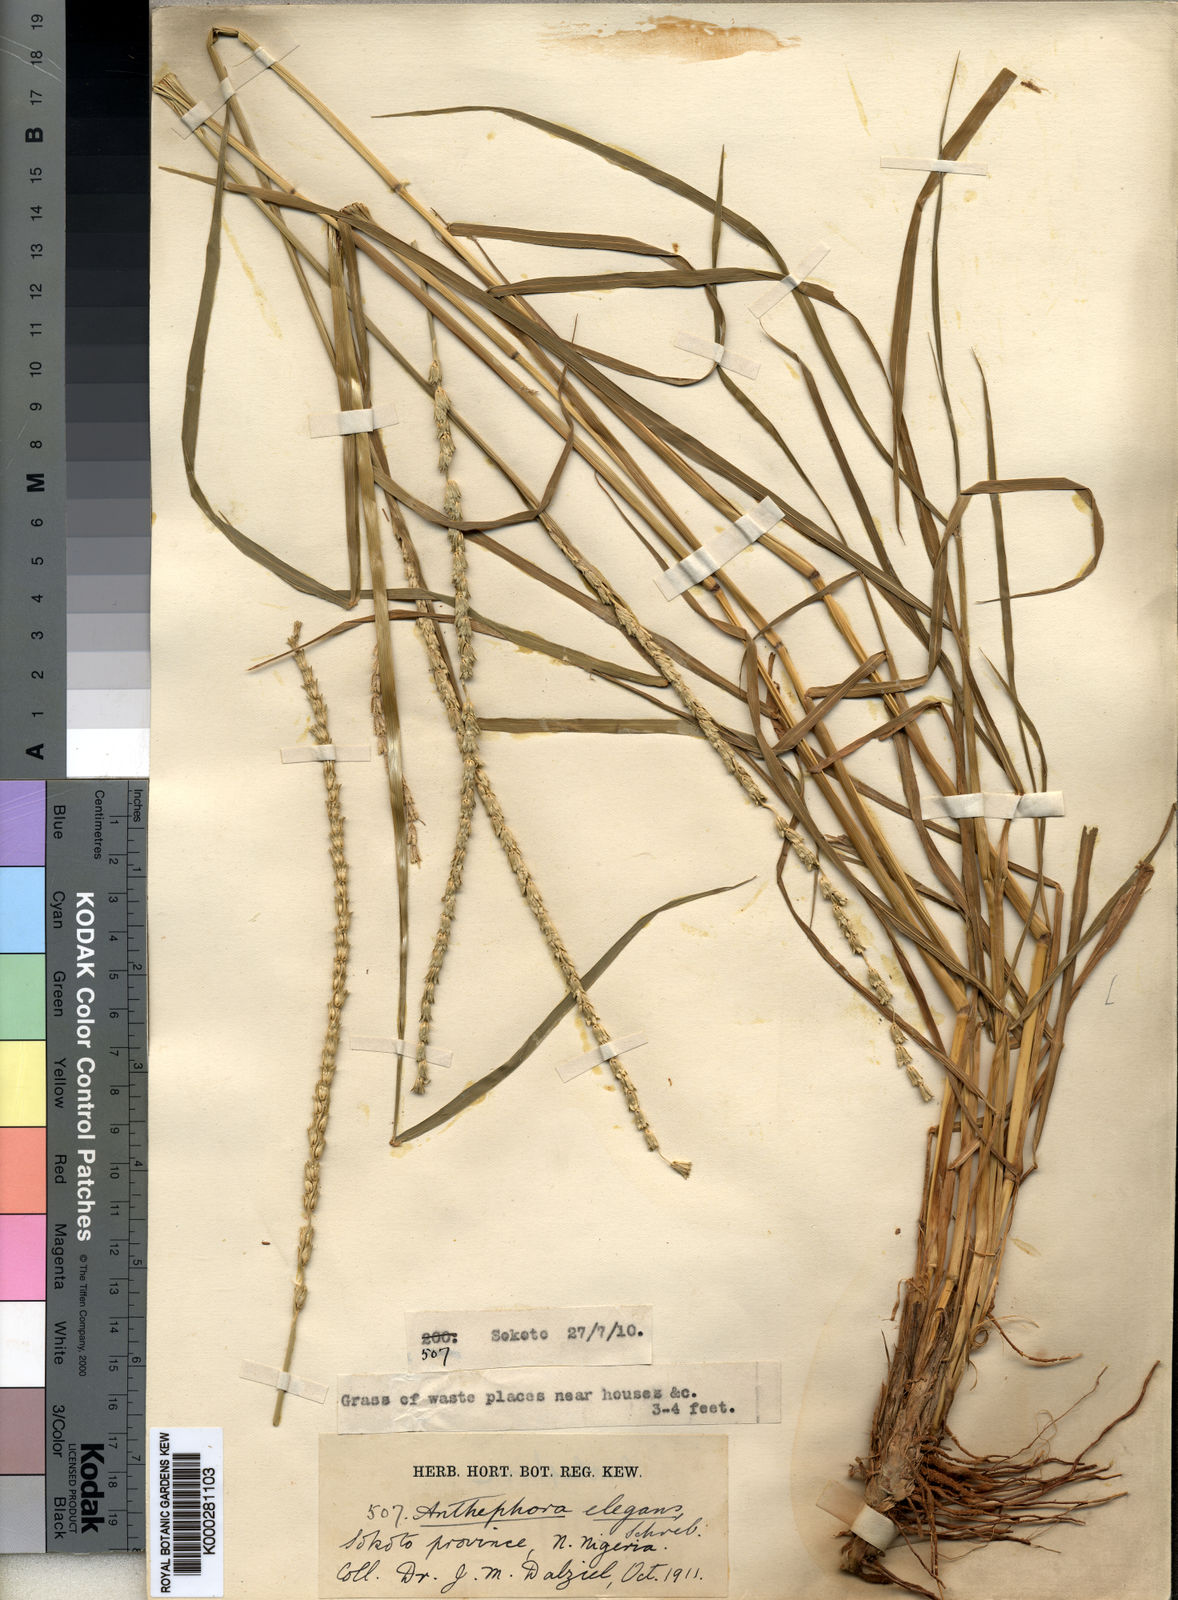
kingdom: Plantae
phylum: Tracheophyta
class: Liliopsida
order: Poales
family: Poaceae
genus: Anthephora
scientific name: Anthephora nigritana
